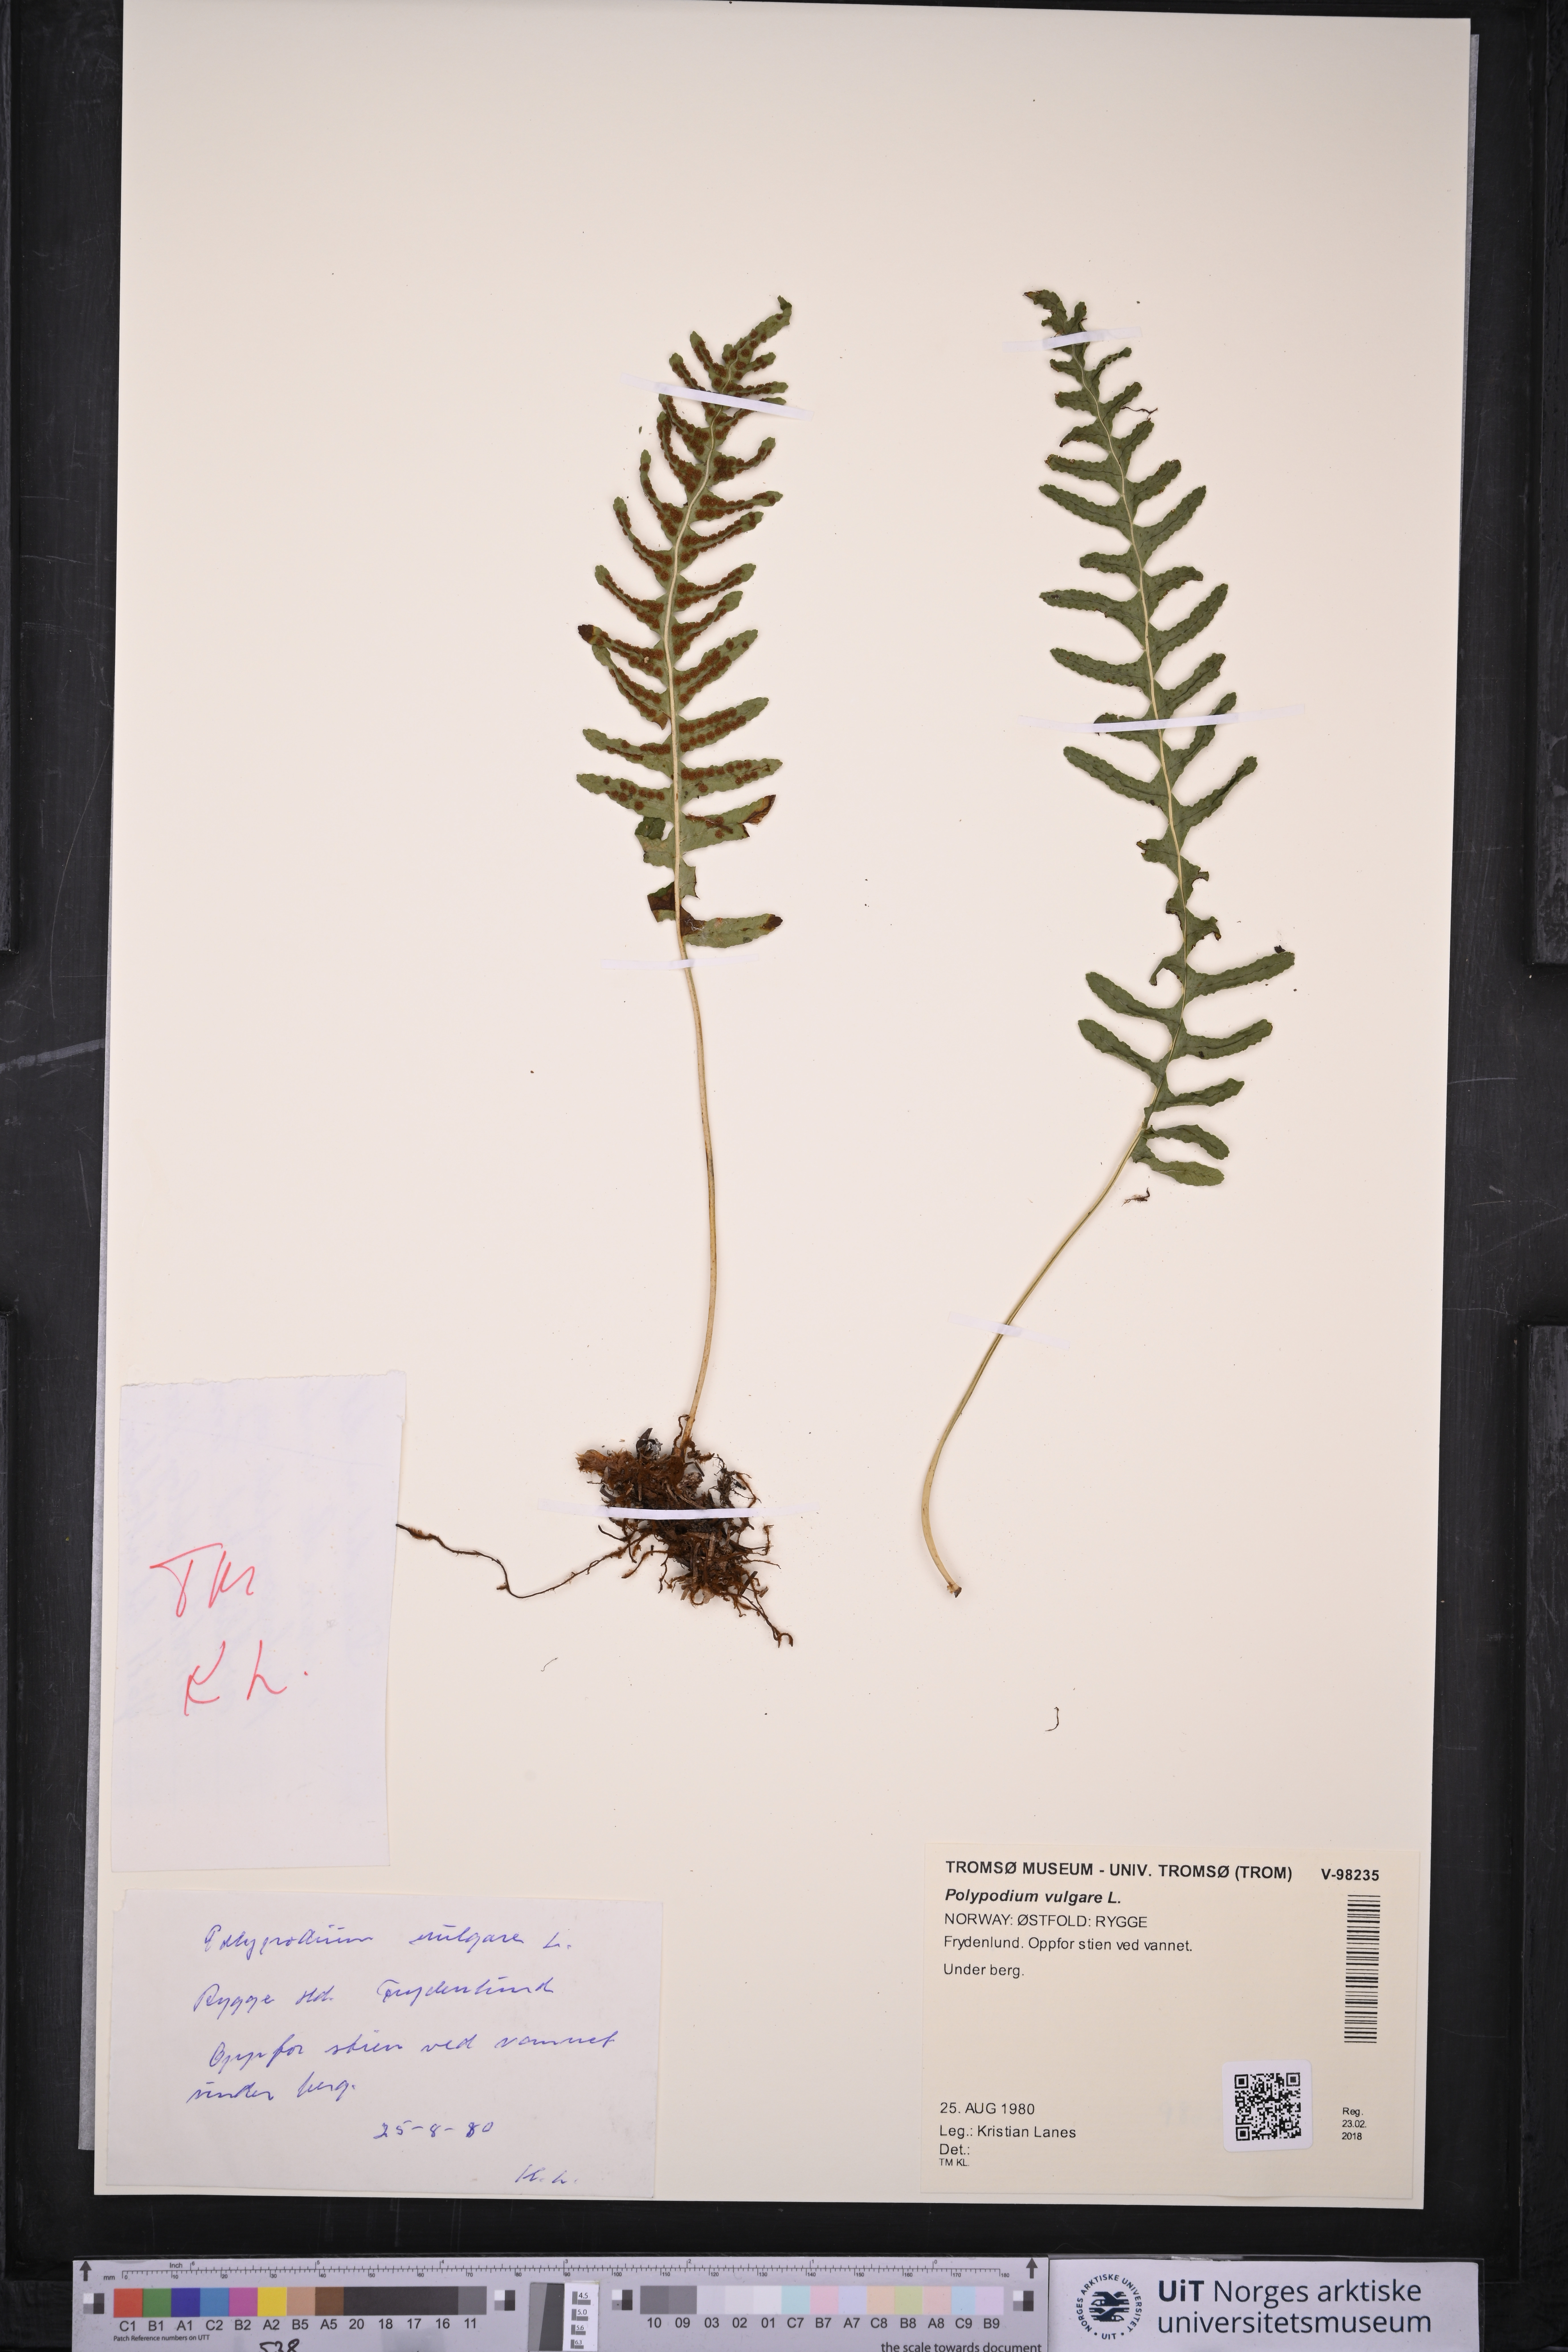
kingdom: Plantae
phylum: Tracheophyta
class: Polypodiopsida
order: Polypodiales
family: Polypodiaceae
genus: Polypodium
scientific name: Polypodium vulgare
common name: Common polypody
